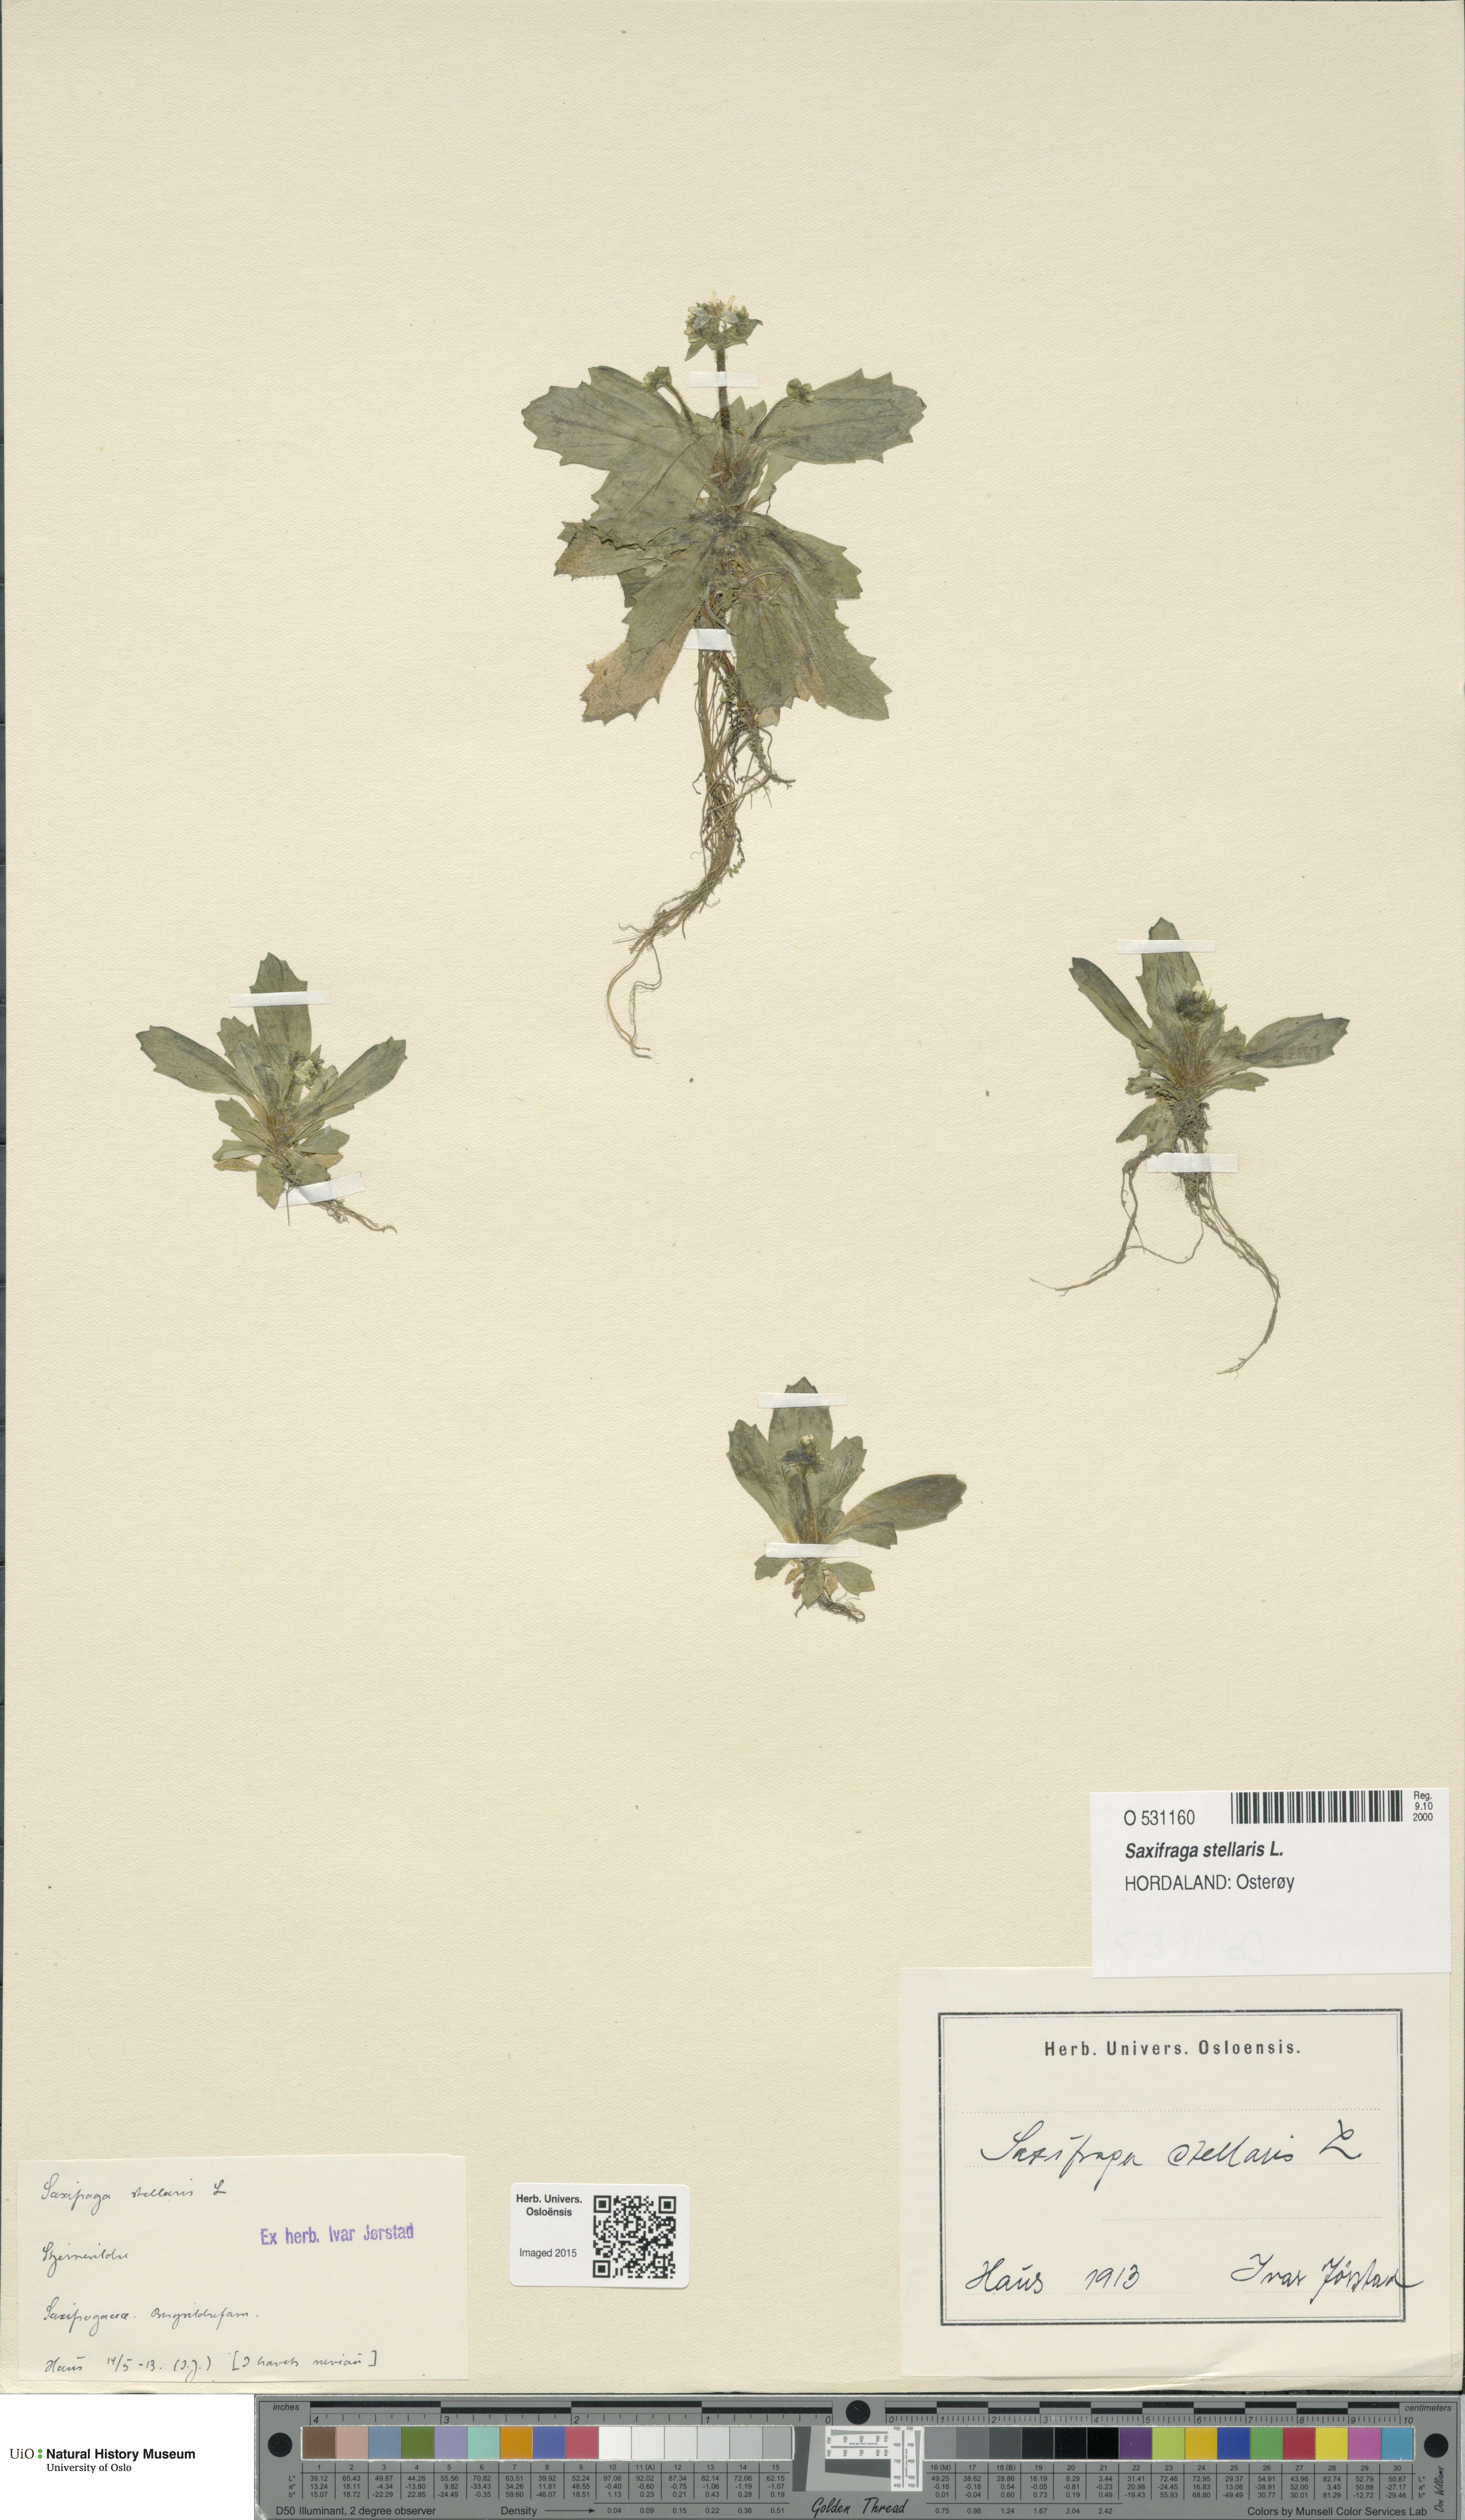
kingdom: Plantae
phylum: Tracheophyta
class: Magnoliopsida
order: Saxifragales
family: Saxifragaceae
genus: Micranthes
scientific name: Micranthes stellaris
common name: Starry saxifrage
